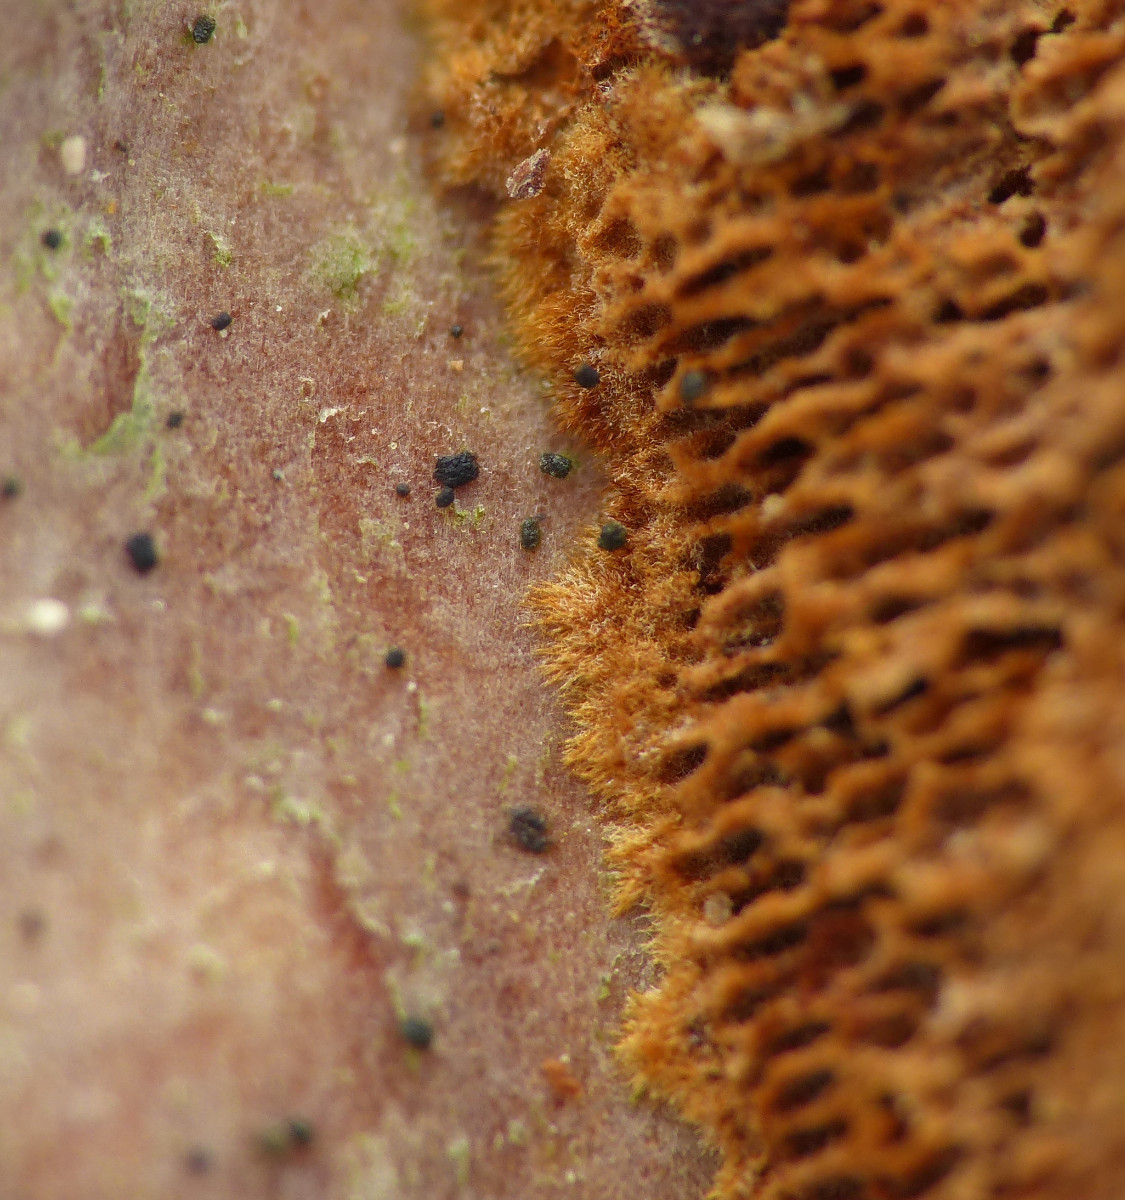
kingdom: Fungi
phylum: Basidiomycota
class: Agaricomycetes
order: Hymenochaetales
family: Hymenochaetaceae
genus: Fuscoporia
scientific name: Fuscoporia ferruginosa
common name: rustbrun ildporesvamp
